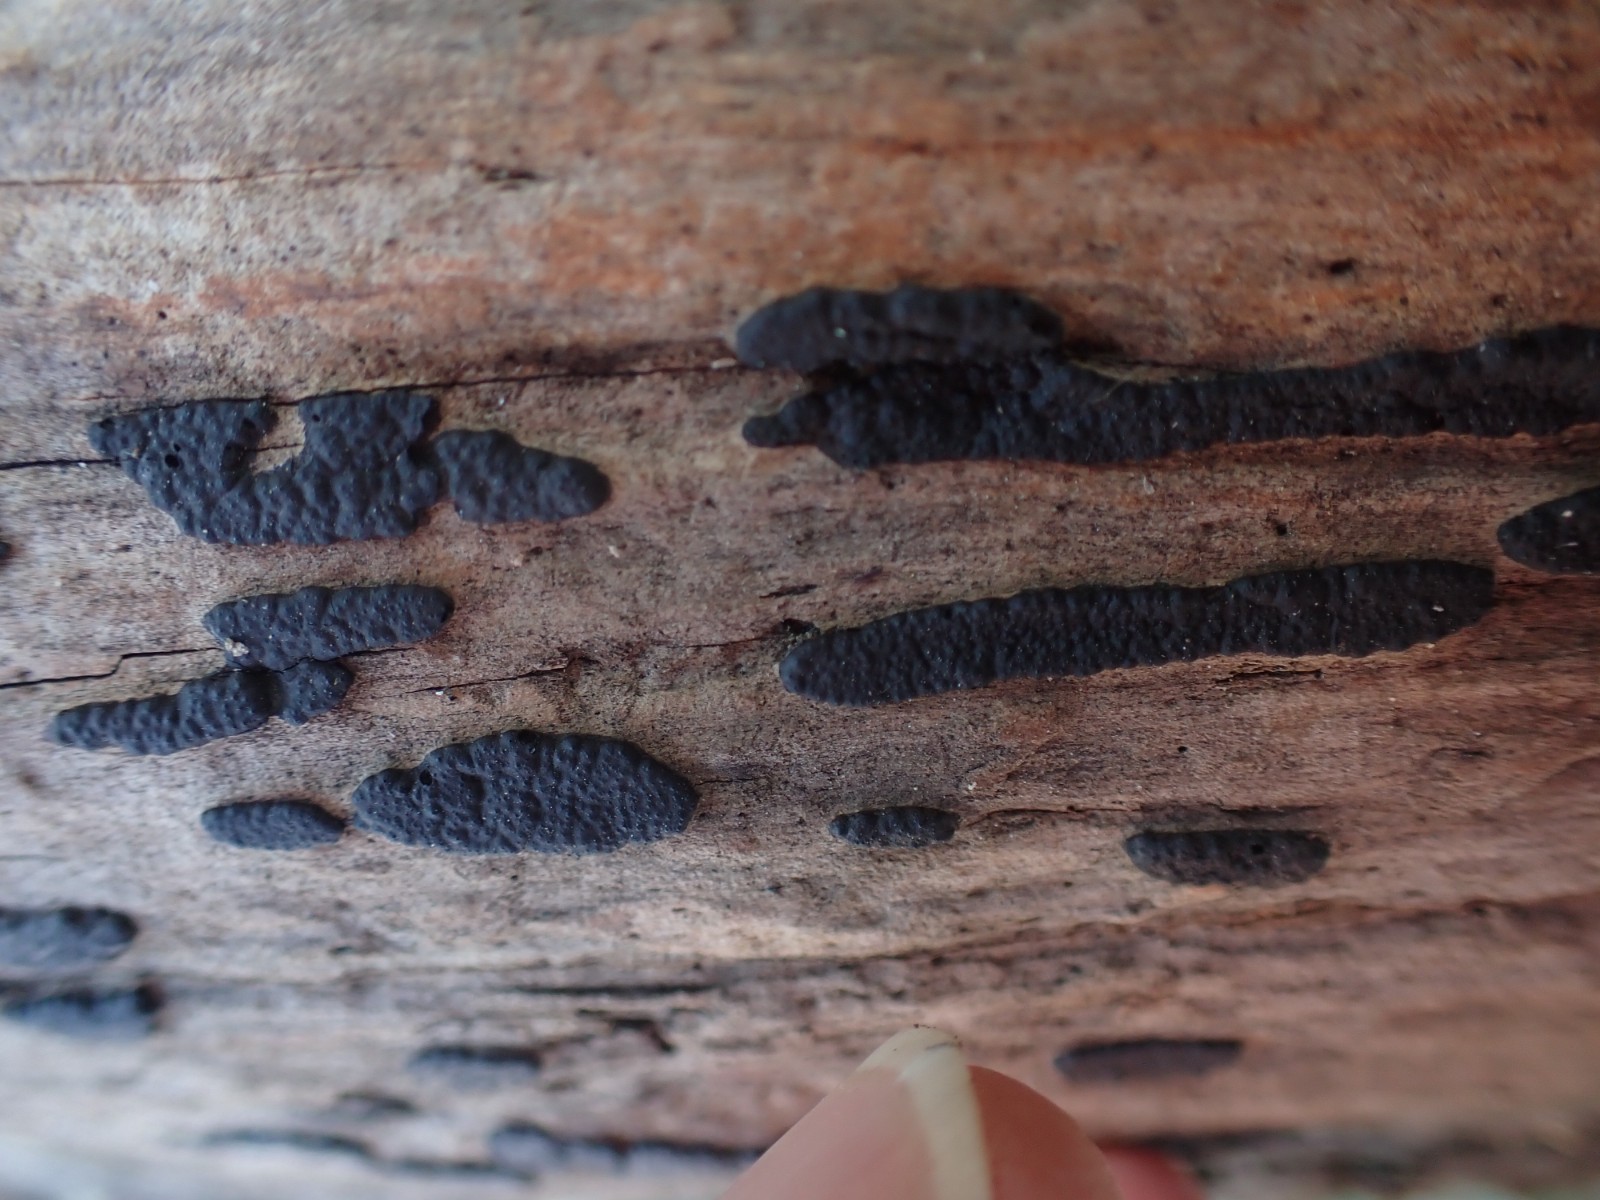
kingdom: Fungi
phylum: Ascomycota
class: Sordariomycetes
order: Xylariales
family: Xylariaceae
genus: Nemania
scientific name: Nemania
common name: kuldyne
